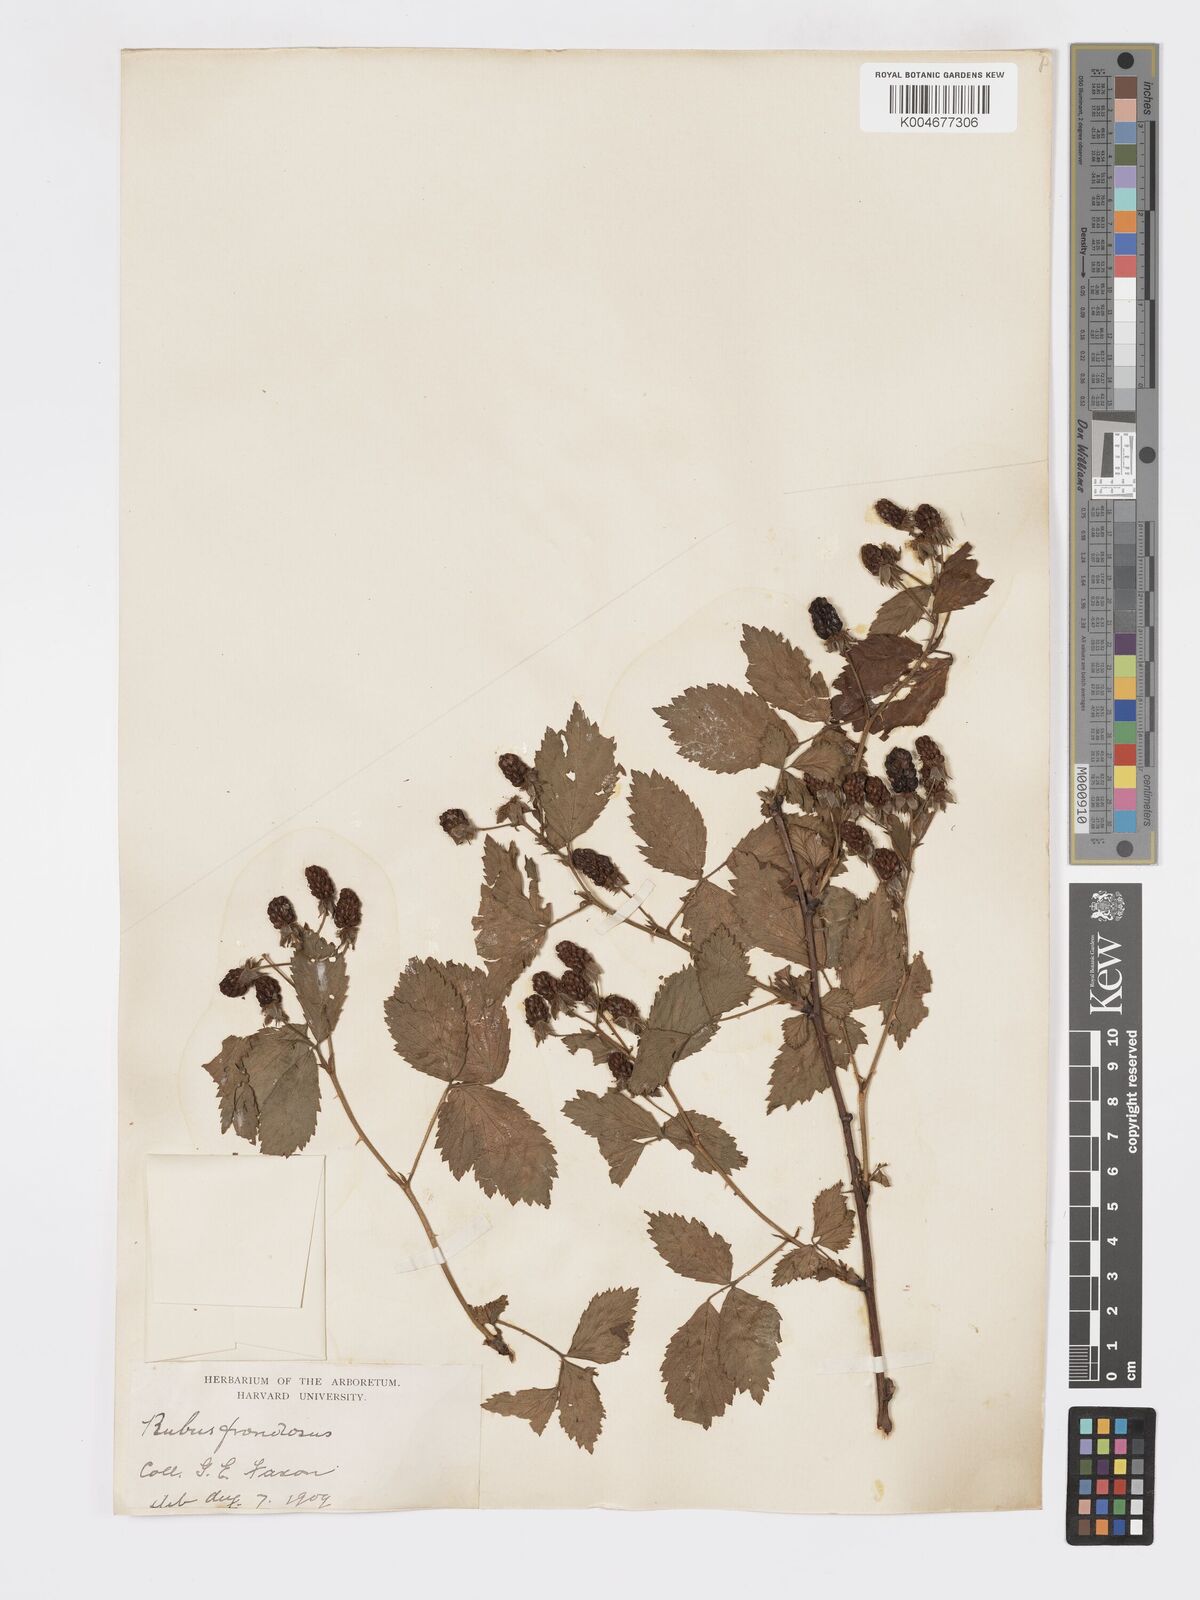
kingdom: Plantae
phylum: Tracheophyta
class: Magnoliopsida
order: Rosales
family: Rosaceae
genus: Rubus
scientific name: Rubus frondosus
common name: Yankee blackberry
